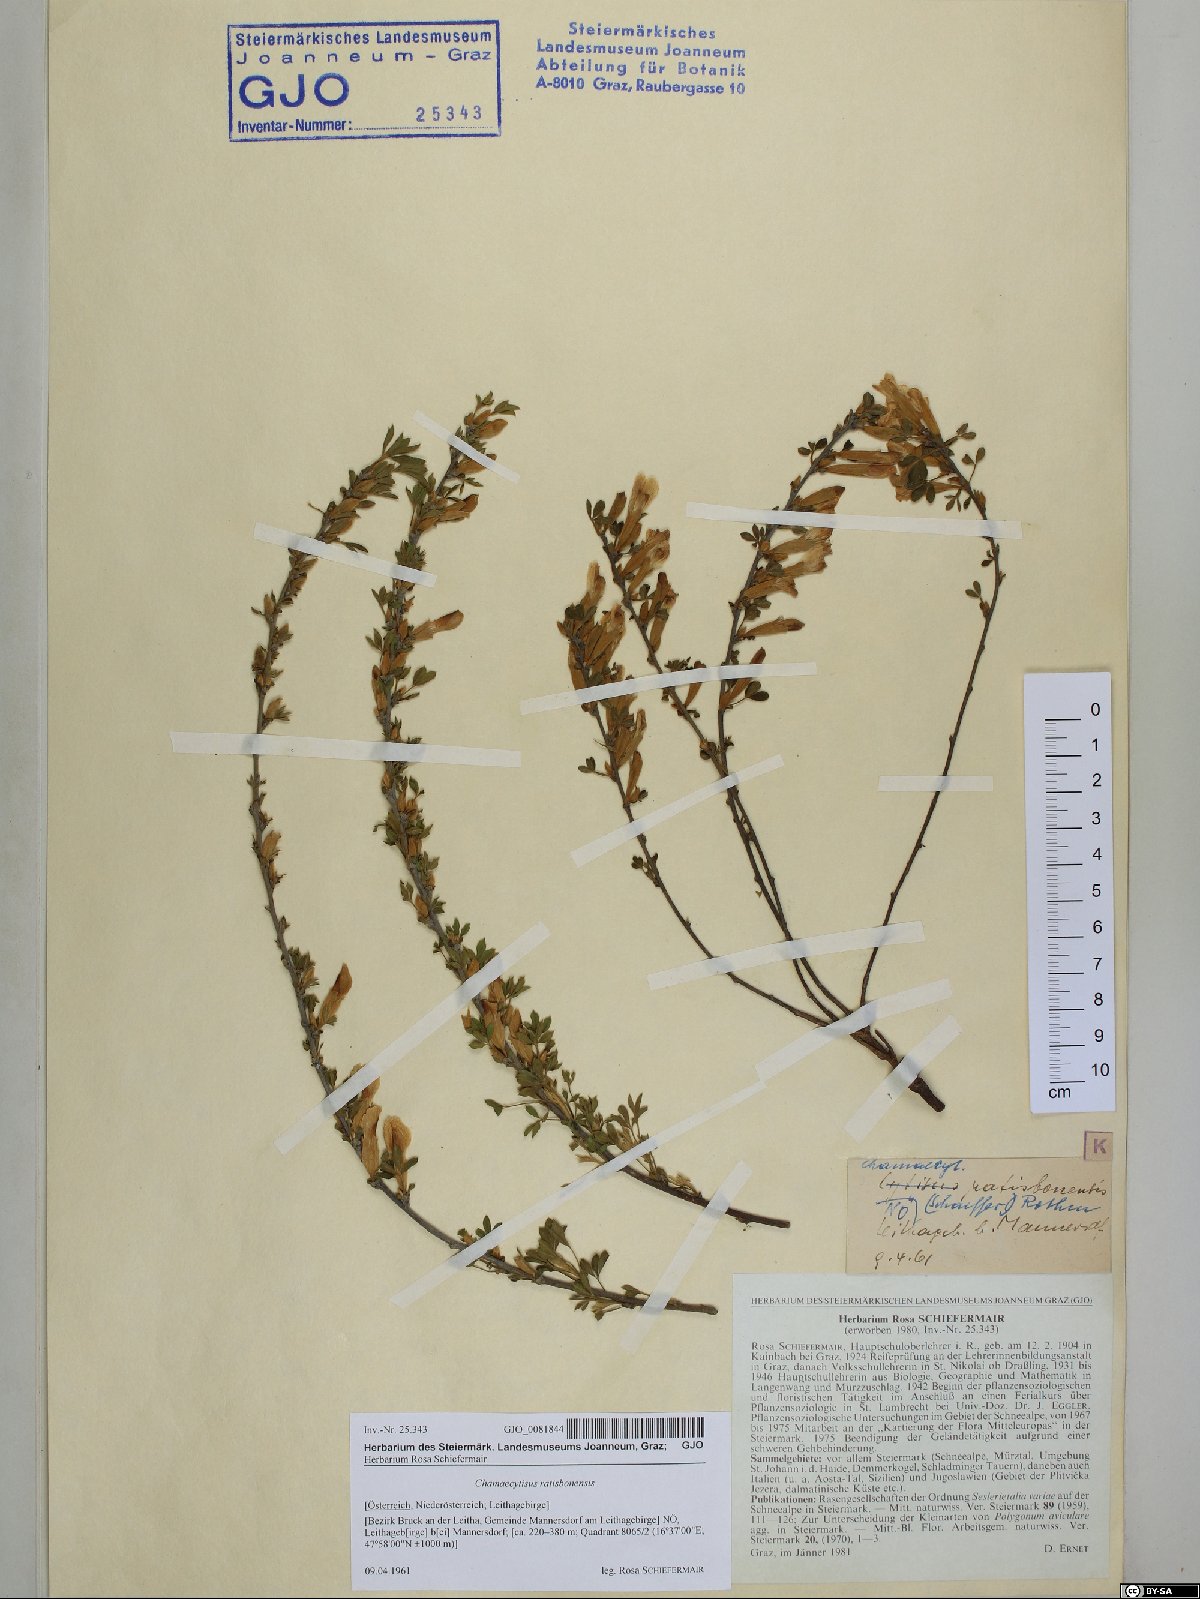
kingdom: Plantae
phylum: Tracheophyta
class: Magnoliopsida
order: Fabales
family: Fabaceae
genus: Chamaecytisus
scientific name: Chamaecytisus ratisbonensis
